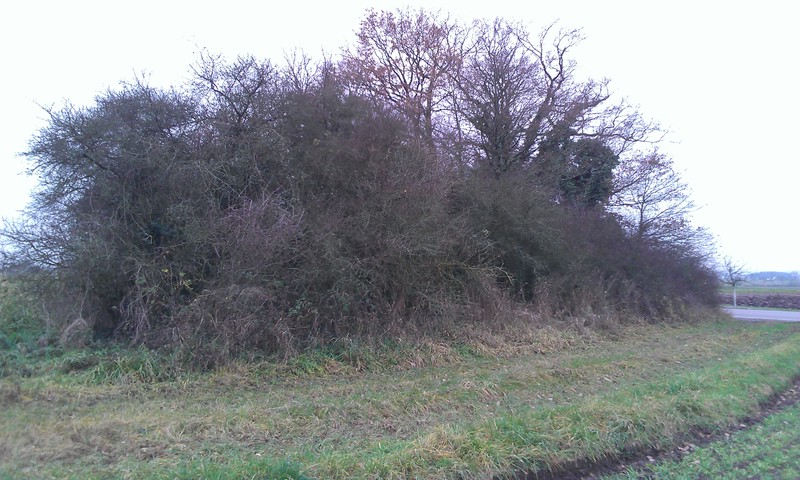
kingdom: Fungi
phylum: Ascomycota
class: Lecanoromycetes
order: Caliciales
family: Physciaceae
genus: Poeltonia
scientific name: Poeltonia grisea
